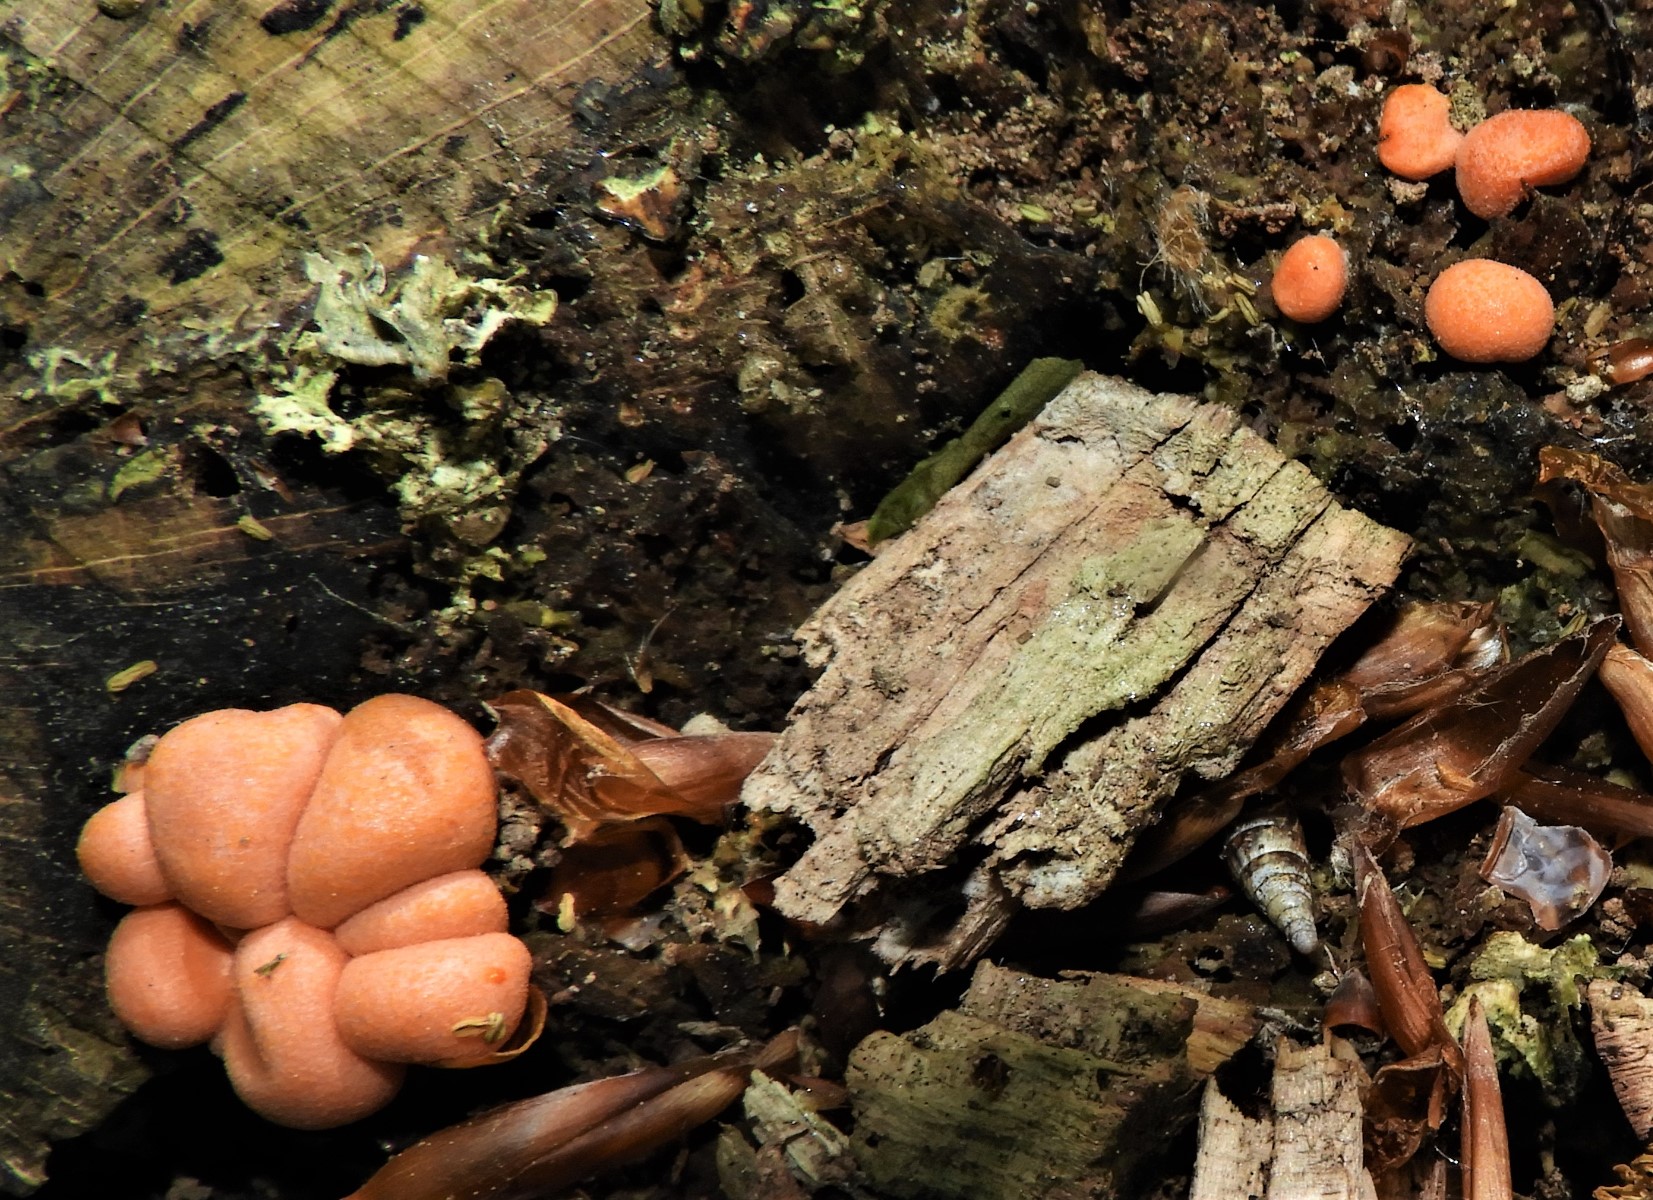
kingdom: Protozoa
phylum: Mycetozoa
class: Myxomycetes
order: Cribrariales
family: Tubiferaceae
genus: Lycogala
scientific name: Lycogala epidendrum
